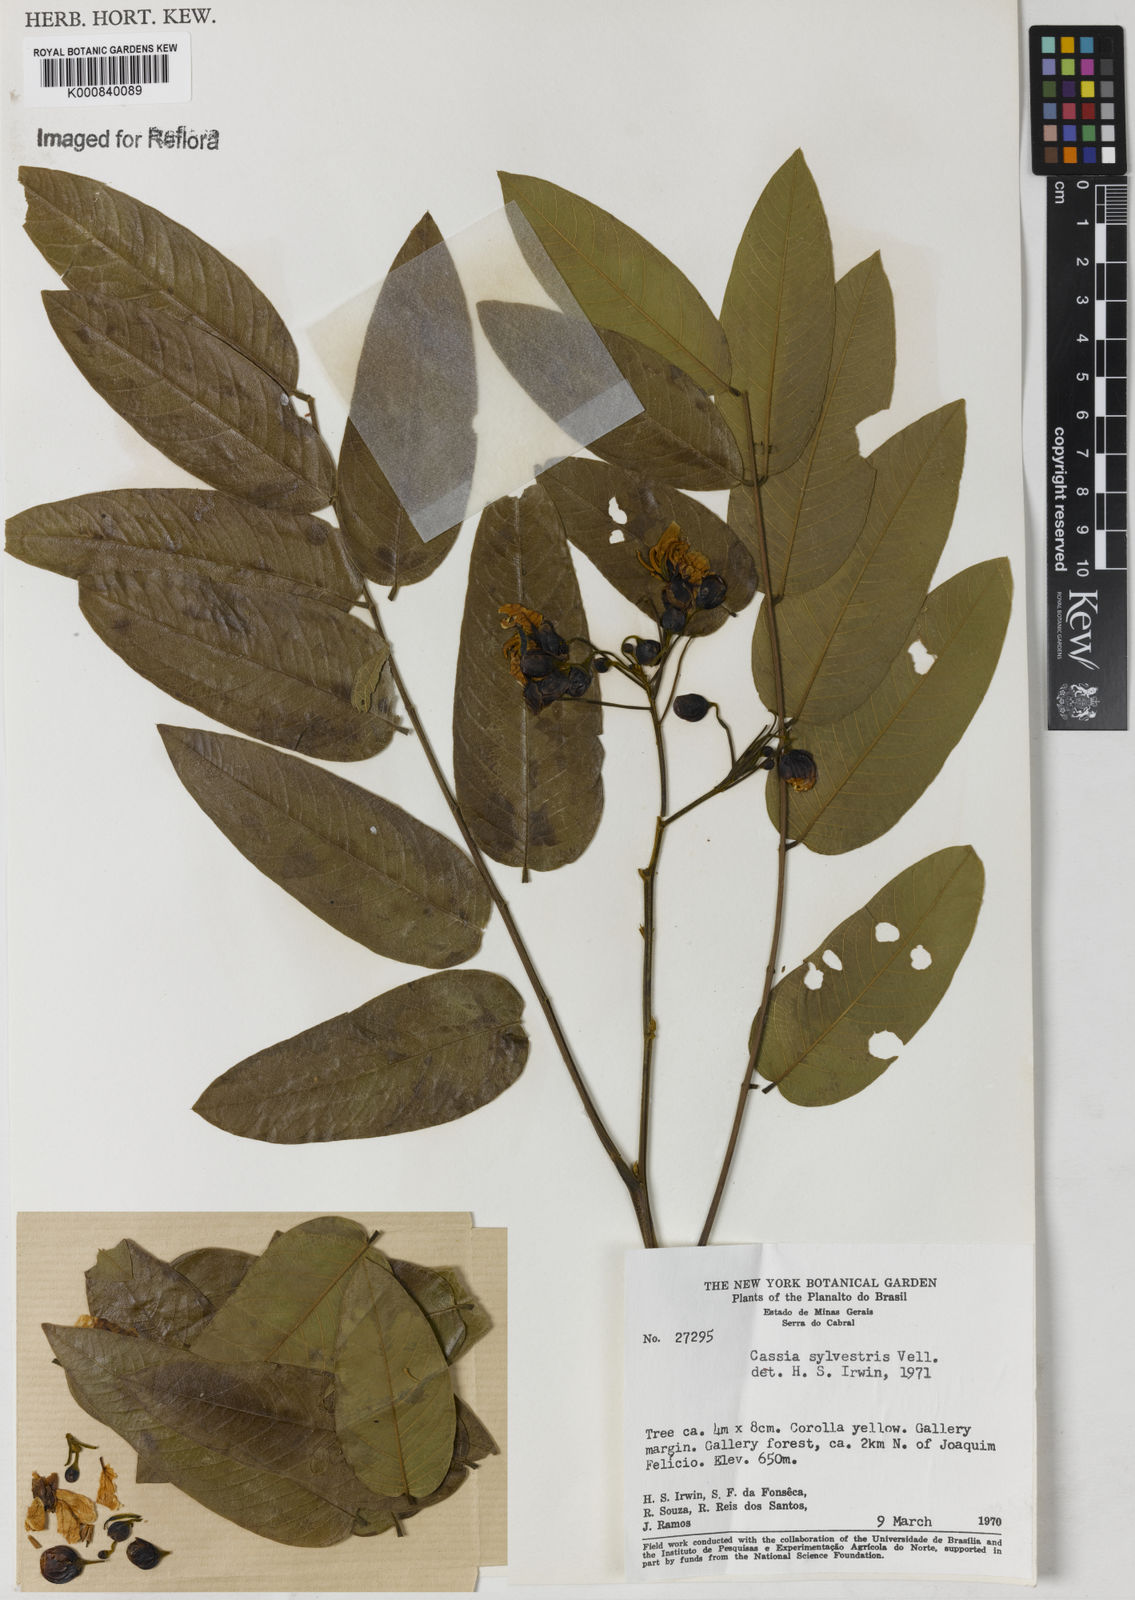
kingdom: Plantae
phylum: Tracheophyta
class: Magnoliopsida
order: Fabales
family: Fabaceae
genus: Senna
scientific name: Senna silvestris
